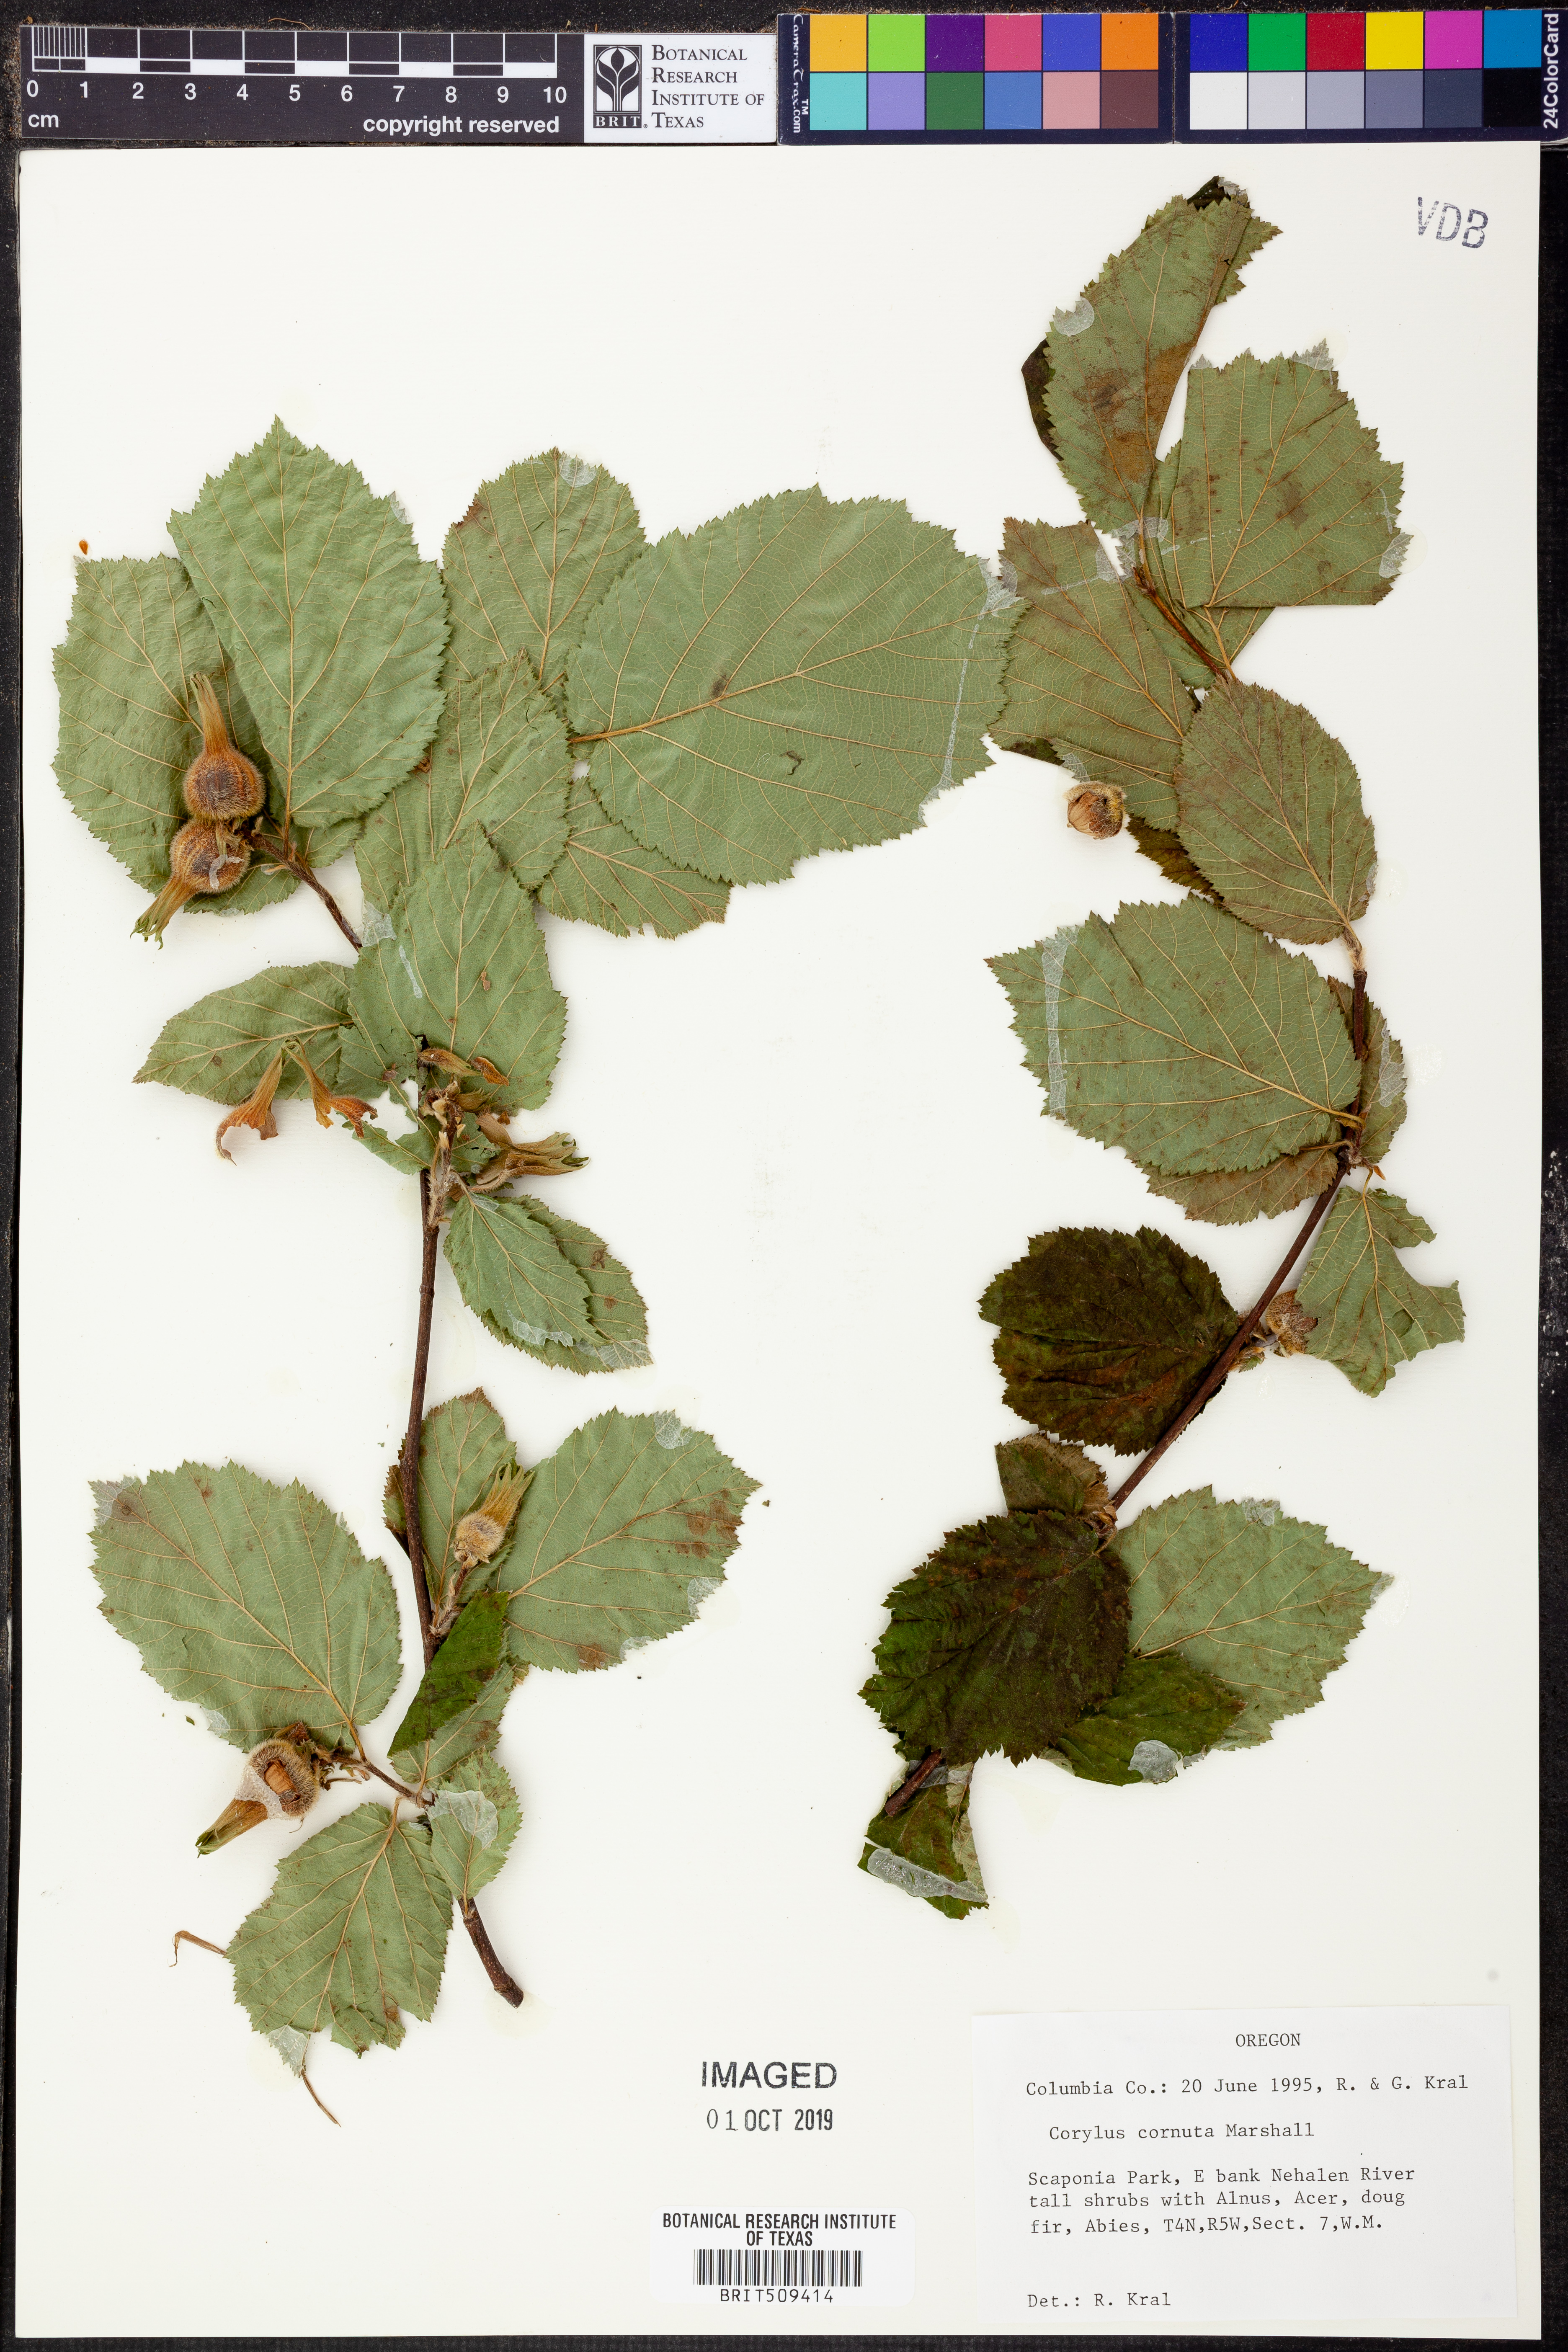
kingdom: Plantae
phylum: Tracheophyta
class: Magnoliopsida
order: Fagales
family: Betulaceae
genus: Corylus
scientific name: Corylus cornuta
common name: Beaked hazel
